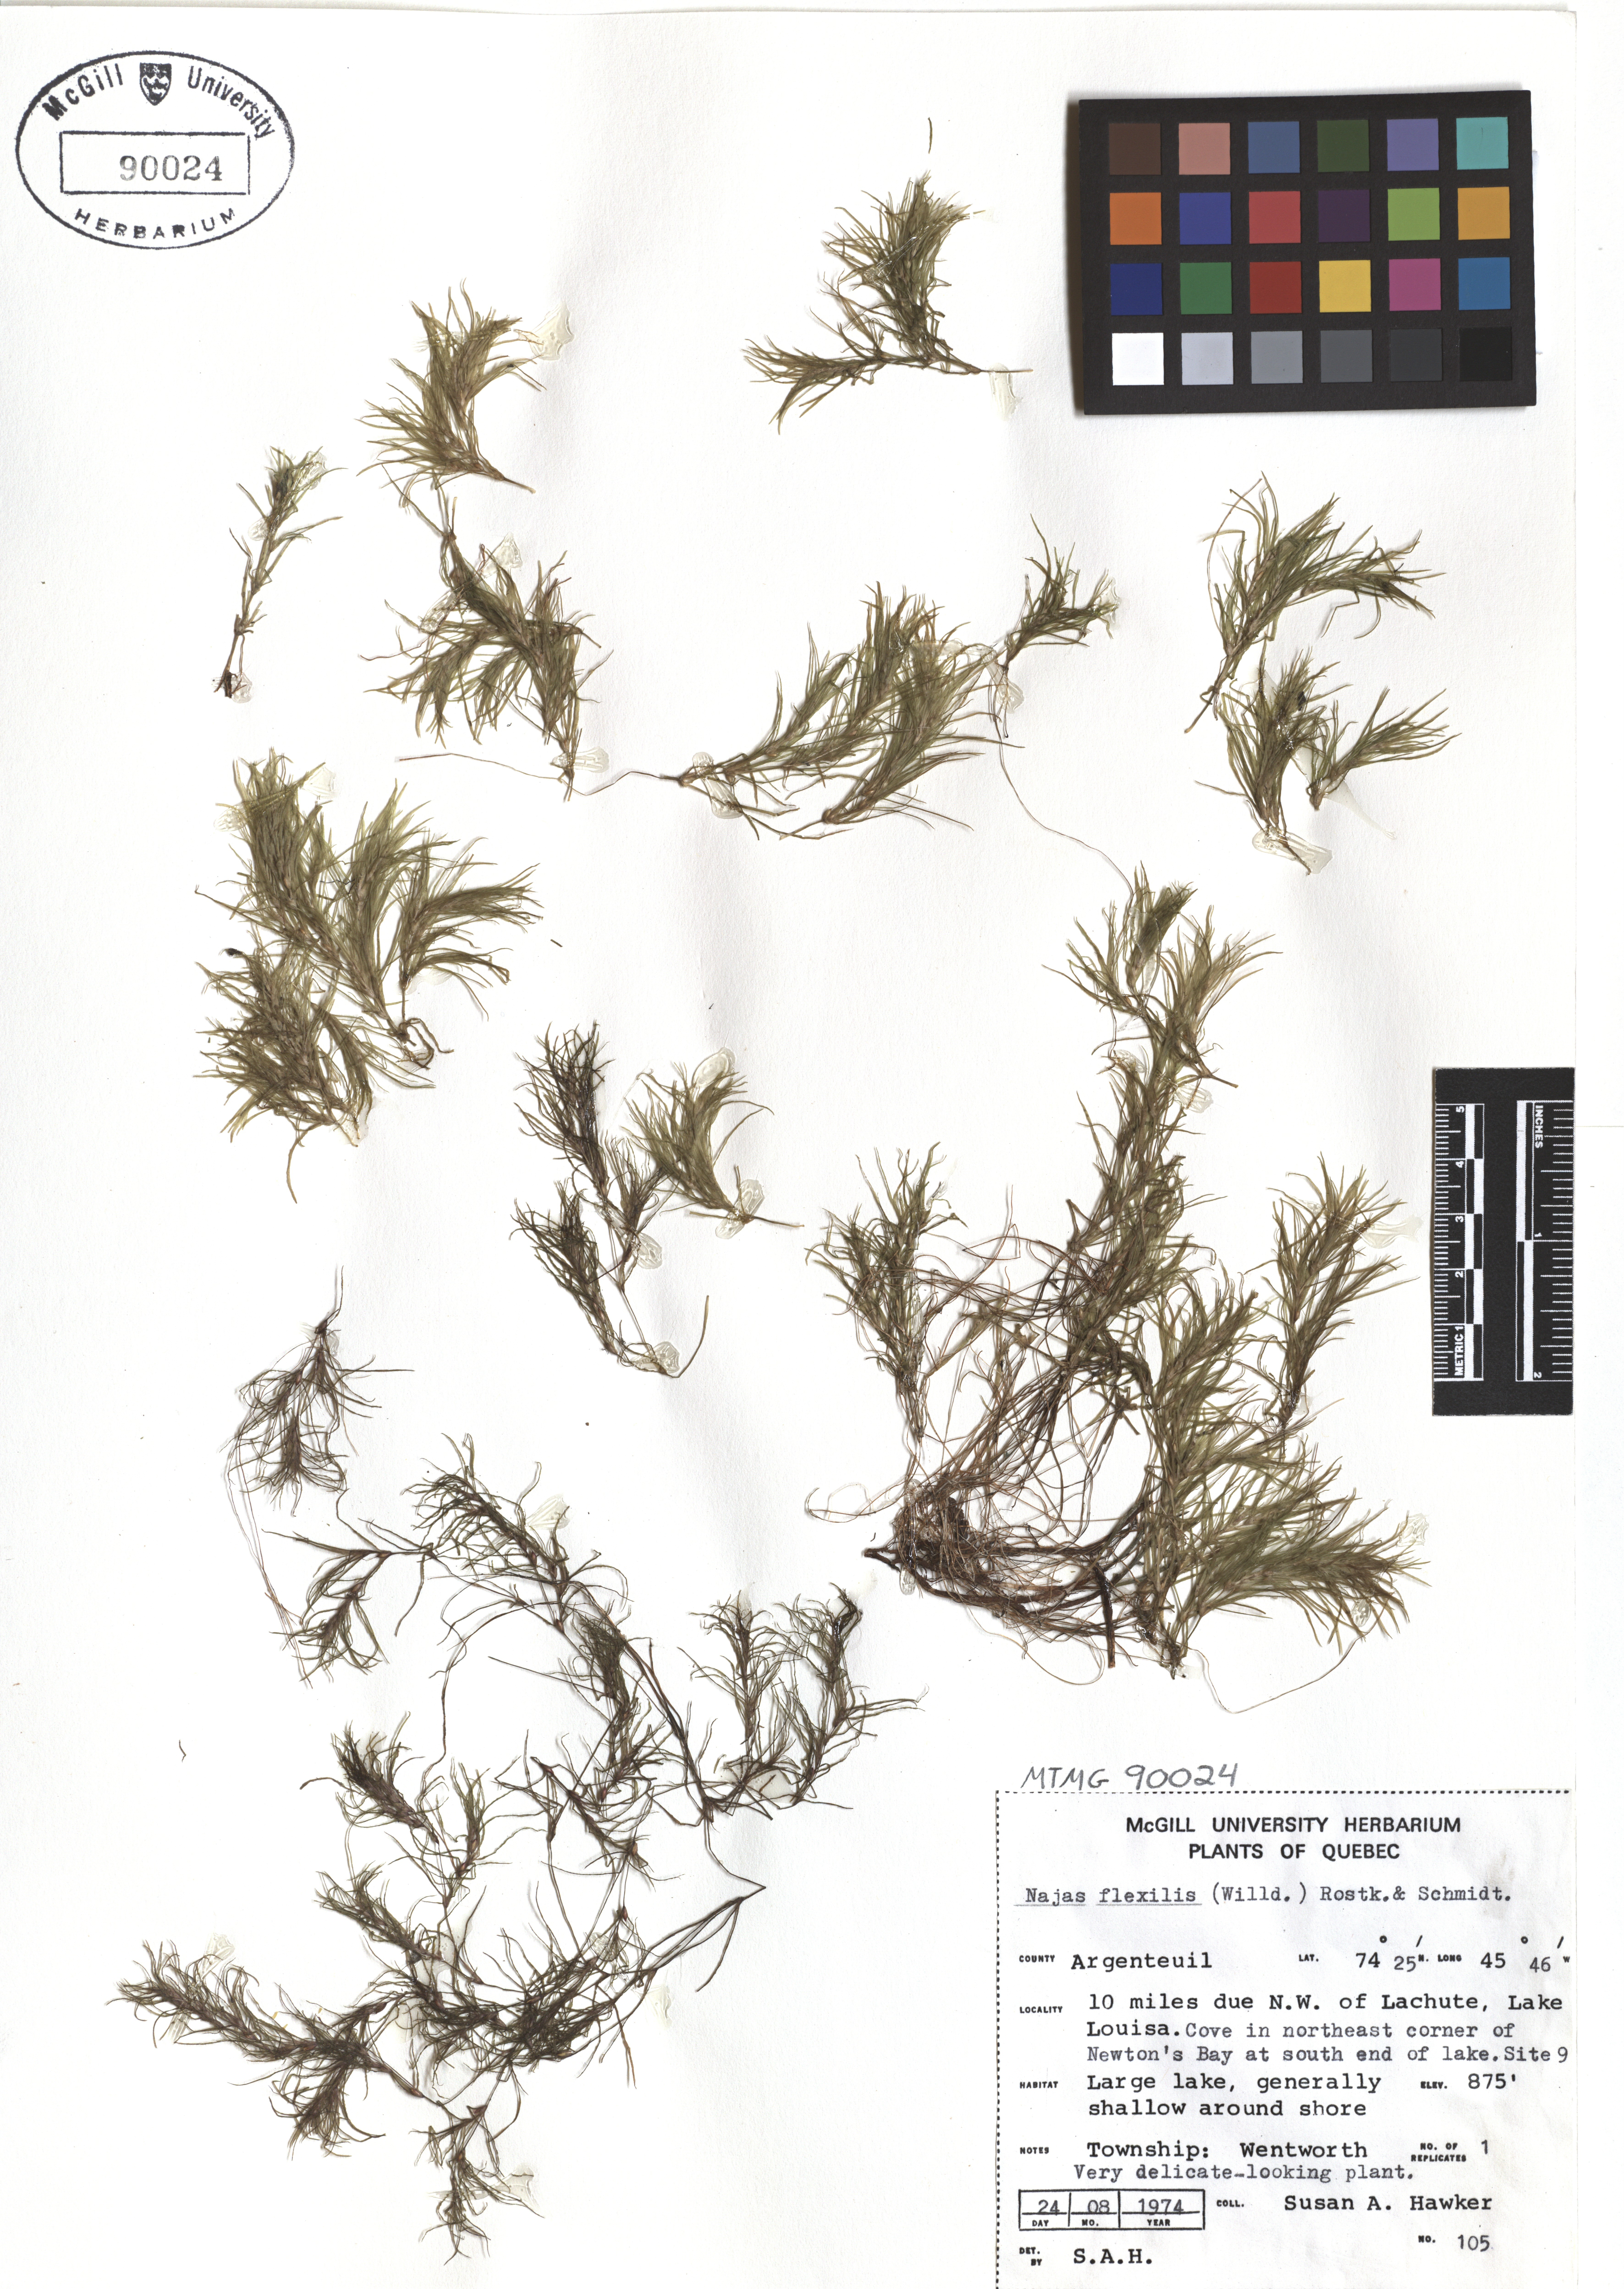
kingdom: Plantae
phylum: Tracheophyta
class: Liliopsida
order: Alismatales
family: Hydrocharitaceae
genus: Najas
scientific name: Najas guadalupensis
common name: Southern naiad
